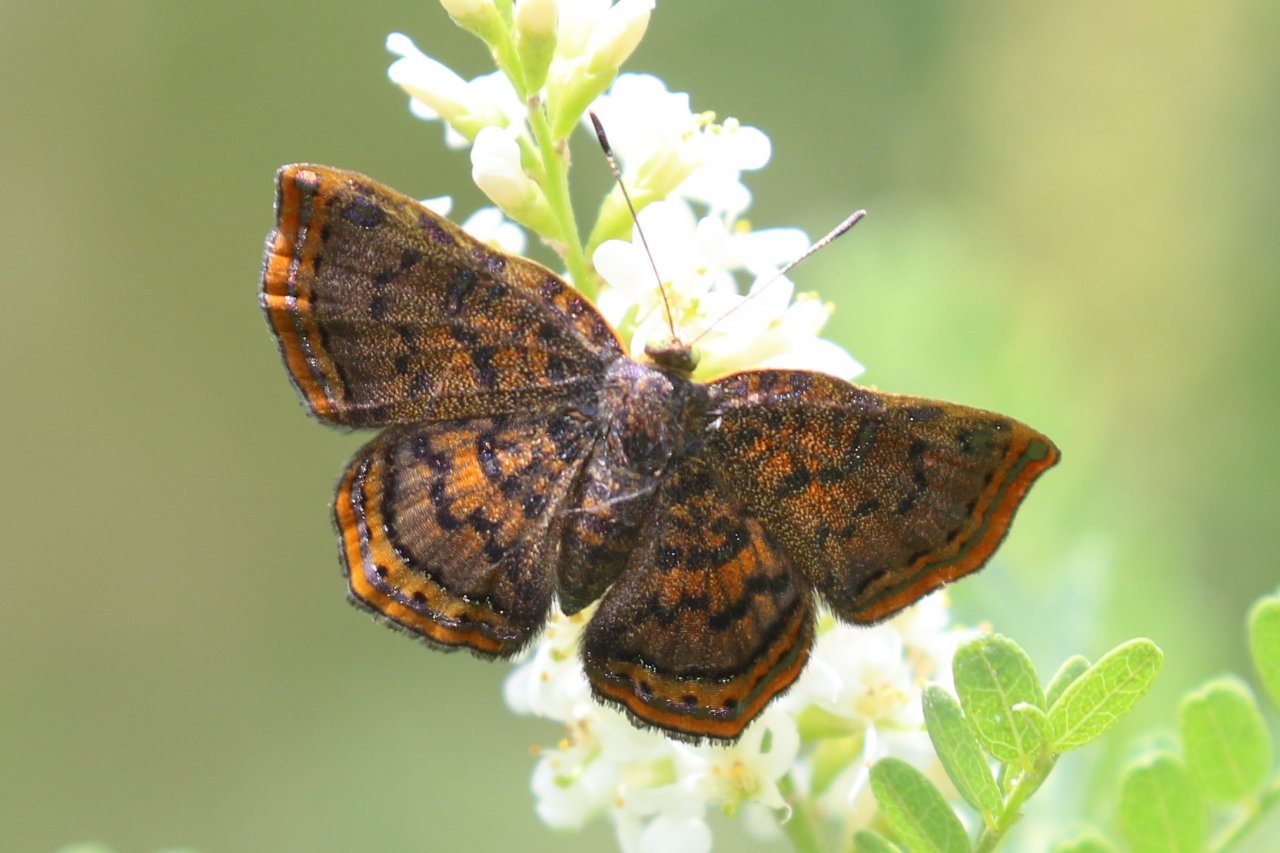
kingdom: Animalia
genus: Caria
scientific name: Caria ino
